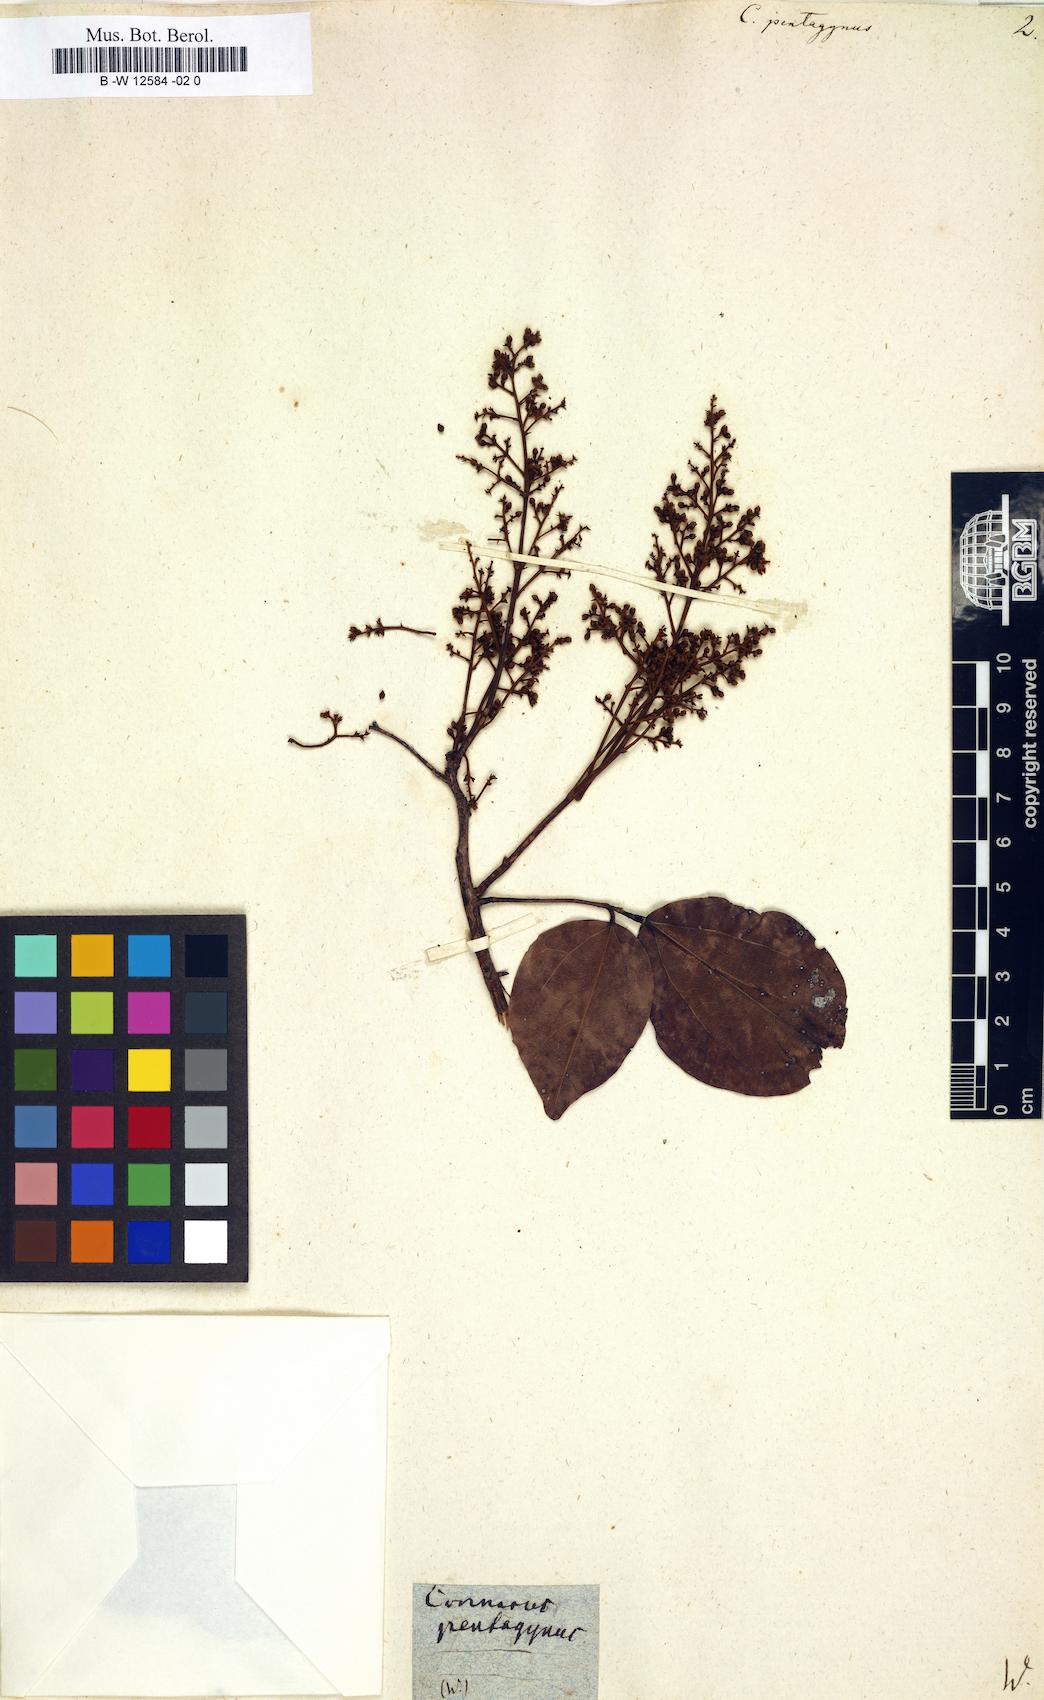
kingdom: Plantae
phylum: Tracheophyta
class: Magnoliopsida
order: Oxalidales
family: Connaraceae
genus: Agelaea
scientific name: Agelaea pentagyna
